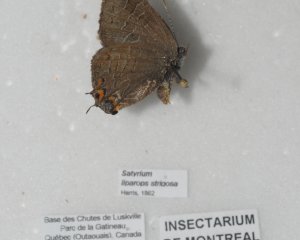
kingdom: Animalia
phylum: Arthropoda
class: Insecta
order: Lepidoptera
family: Lycaenidae
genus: Satyrium
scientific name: Satyrium liparops
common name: Striped Hairstreak
